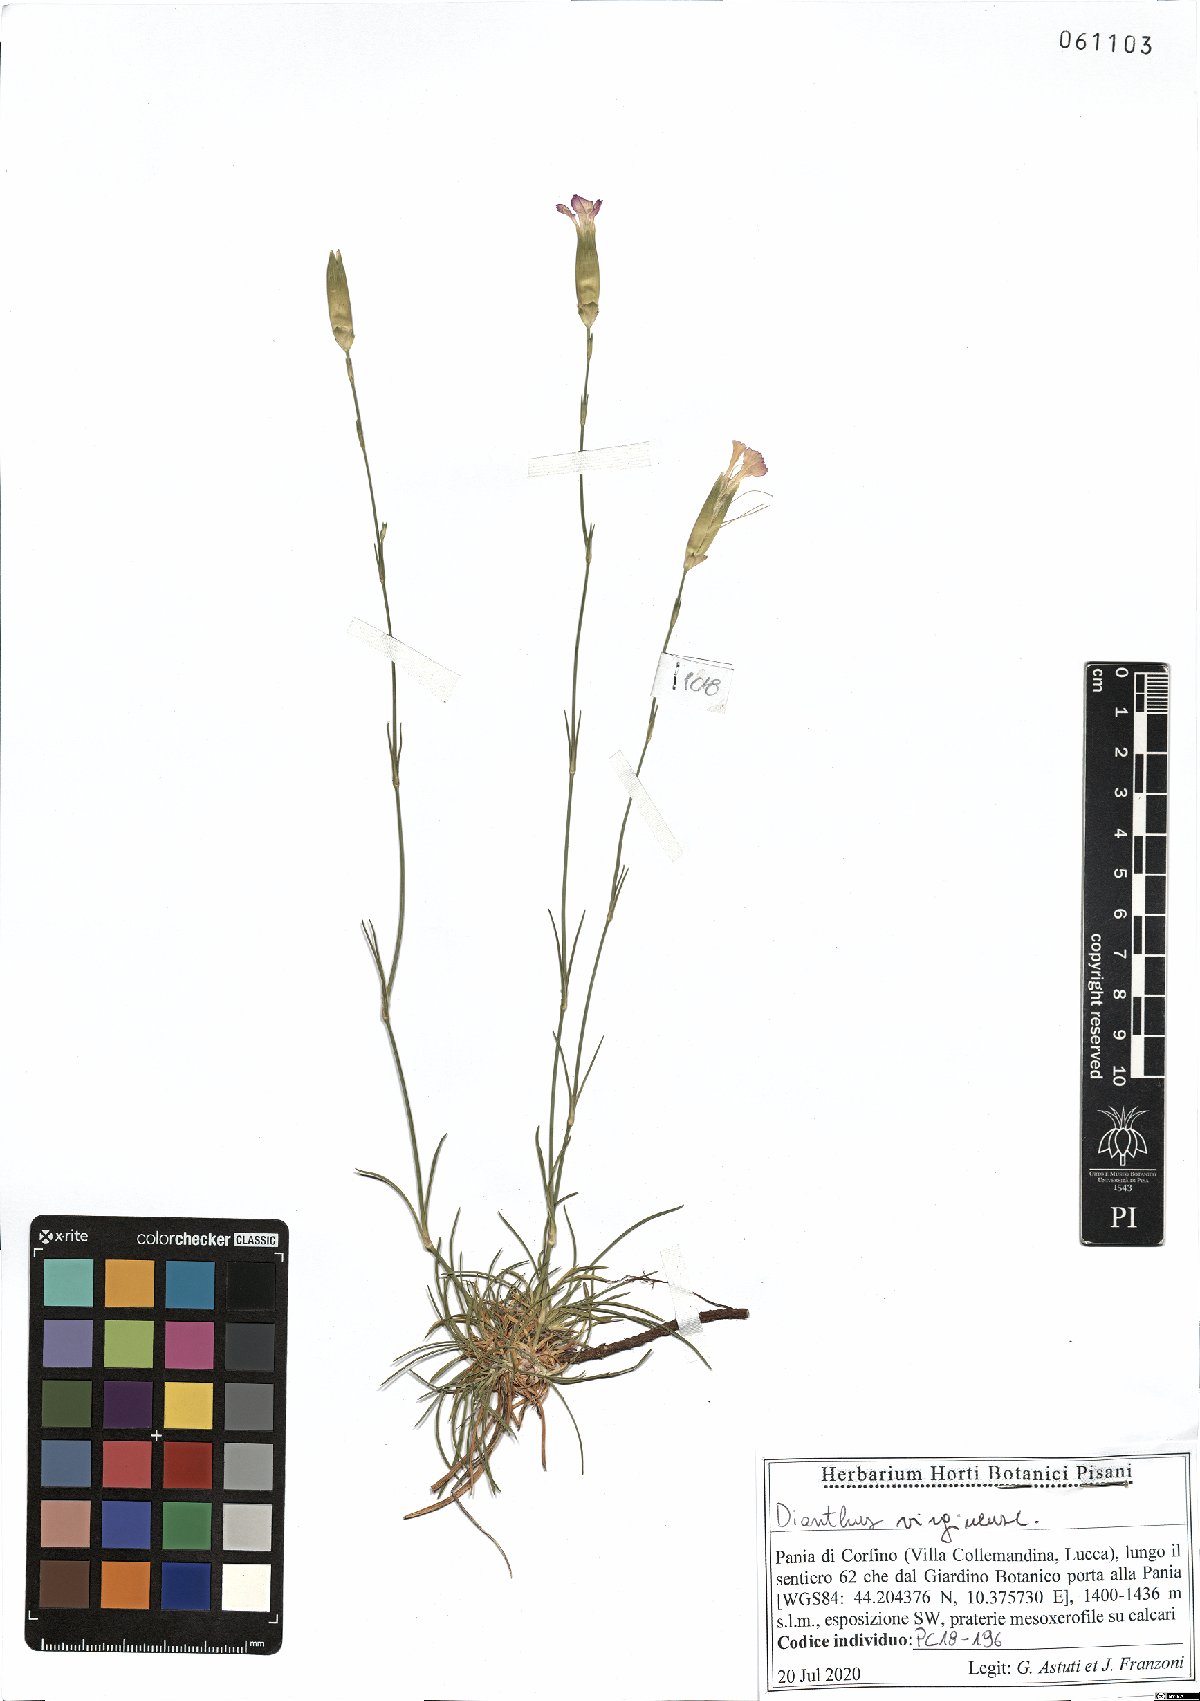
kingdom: Plantae
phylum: Tracheophyta
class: Magnoliopsida
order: Caryophyllales
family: Caryophyllaceae
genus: Dianthus
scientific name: Dianthus virgineus
